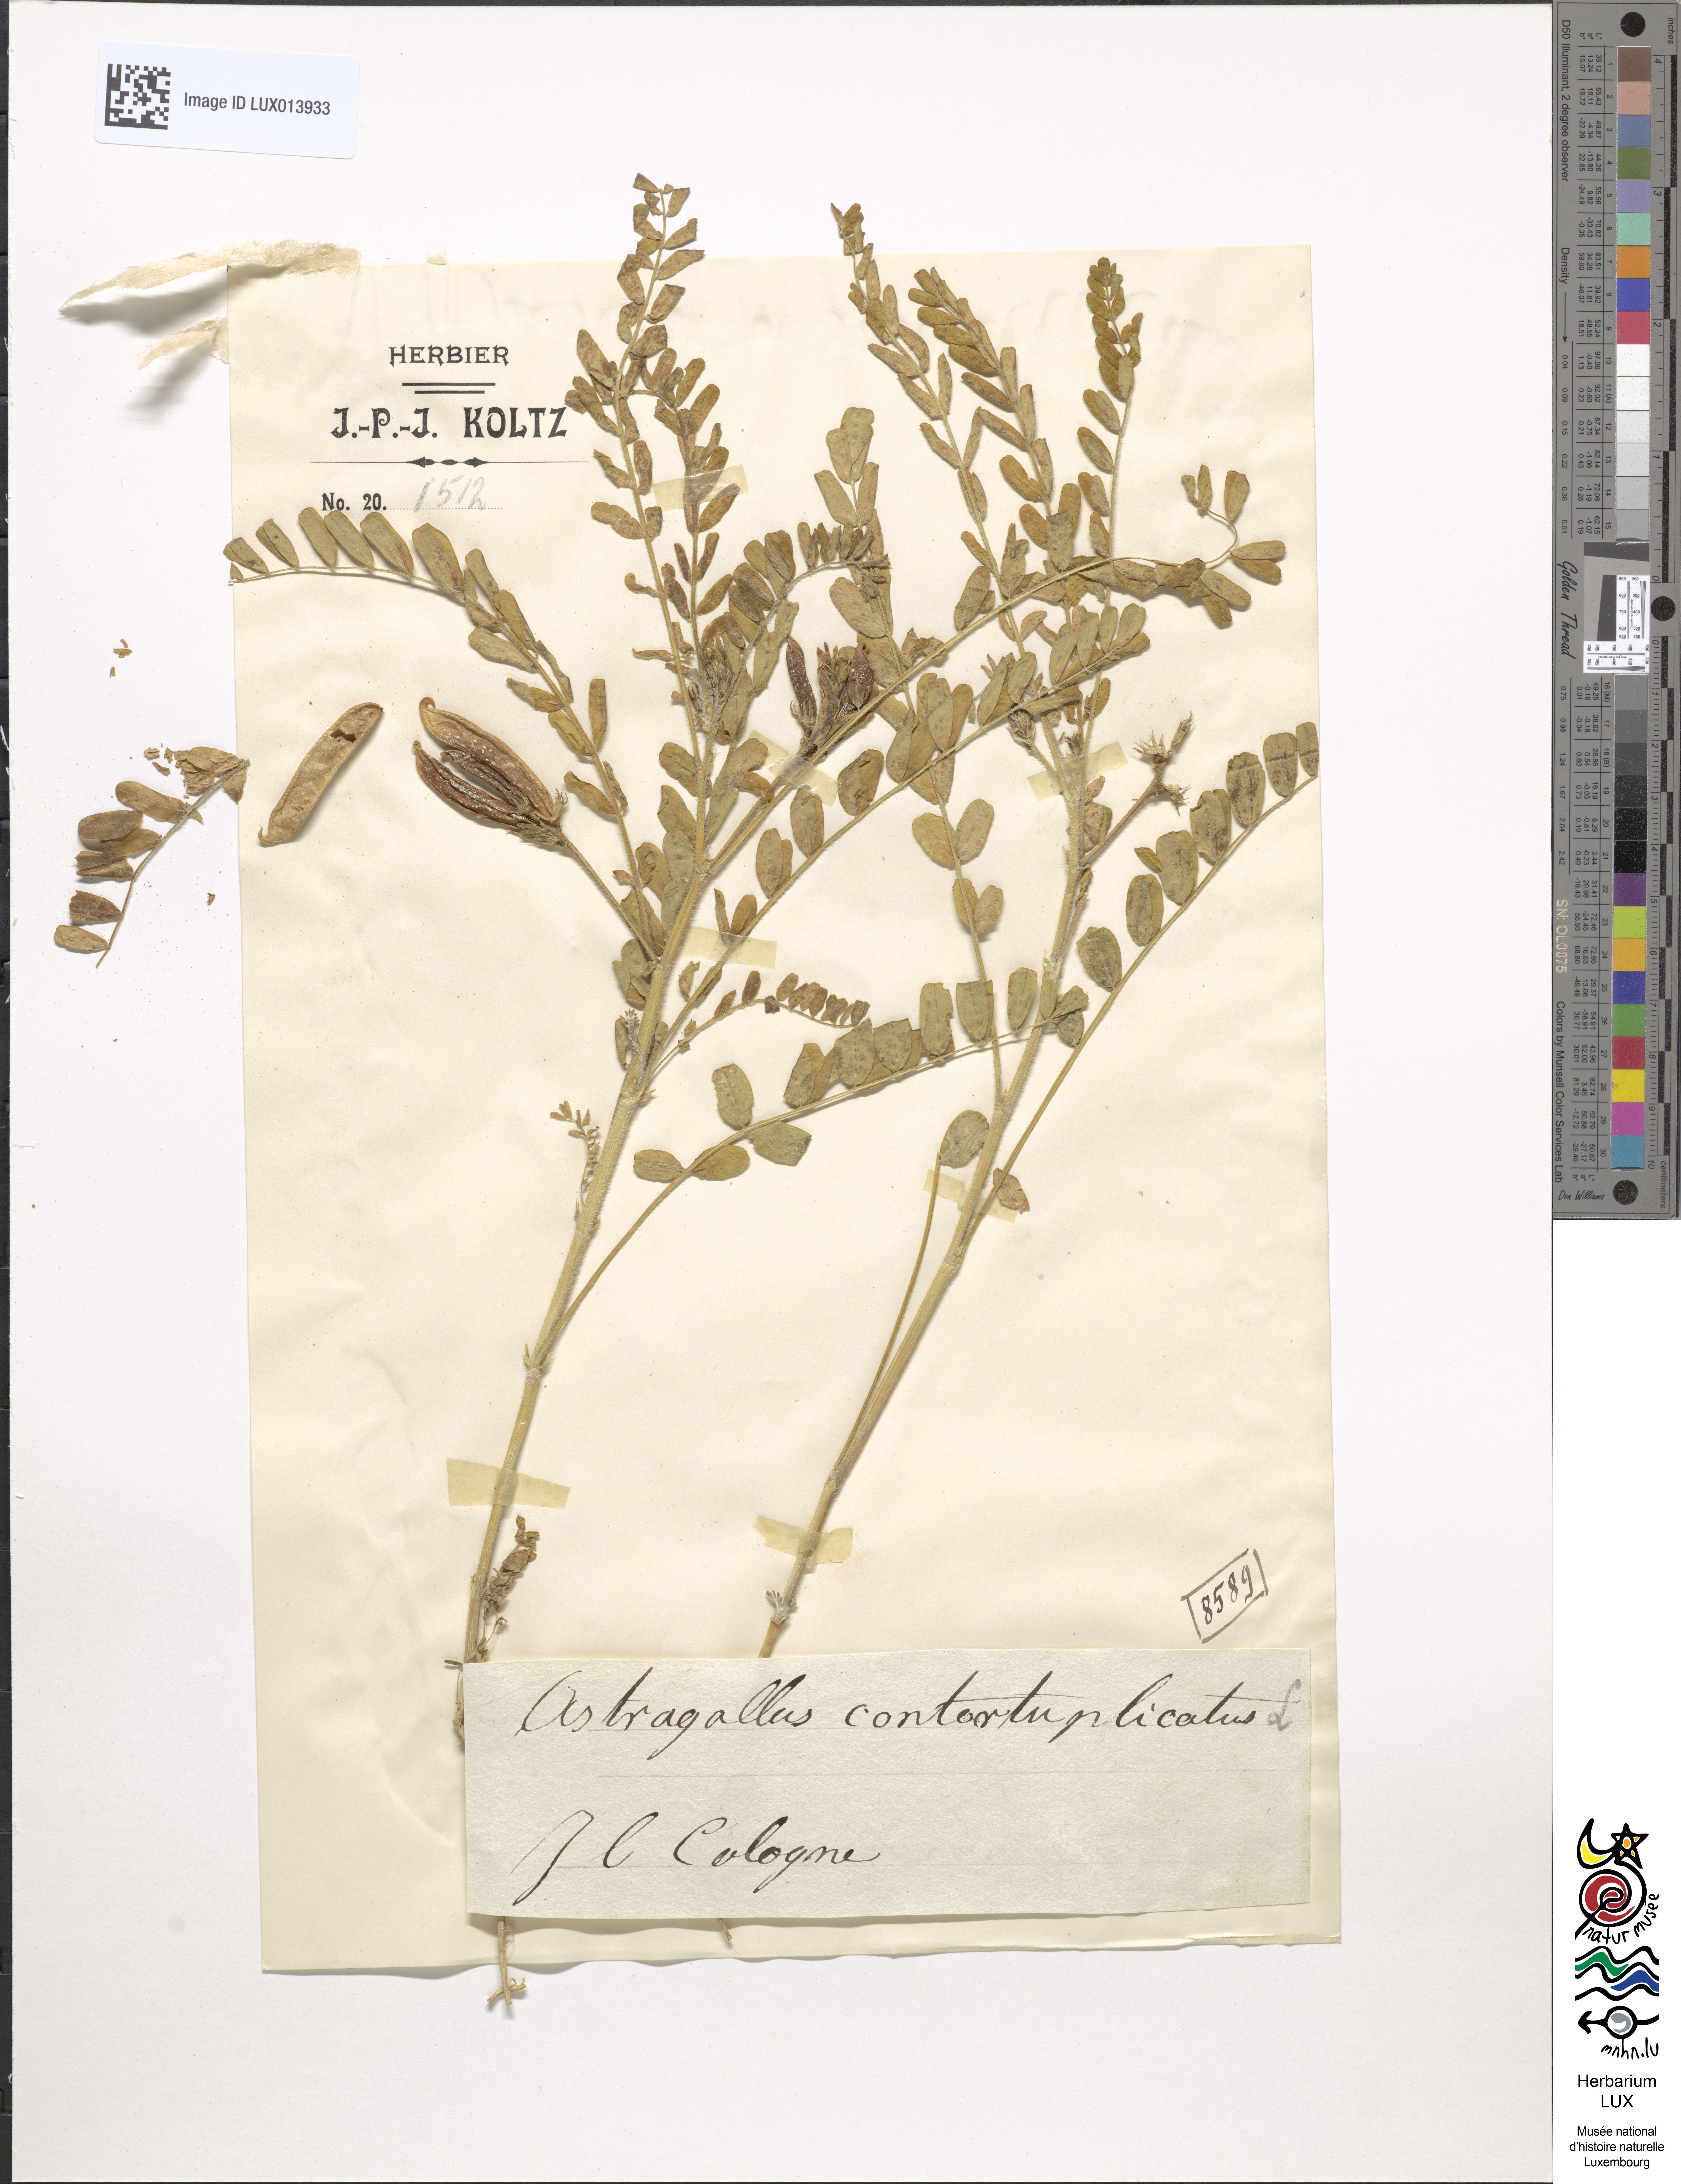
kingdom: Plantae
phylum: Tracheophyta
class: Magnoliopsida
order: Fabales
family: Fabaceae
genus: Astragalus
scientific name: Astragalus contortuplicatus
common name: Hungarian milkvetch
